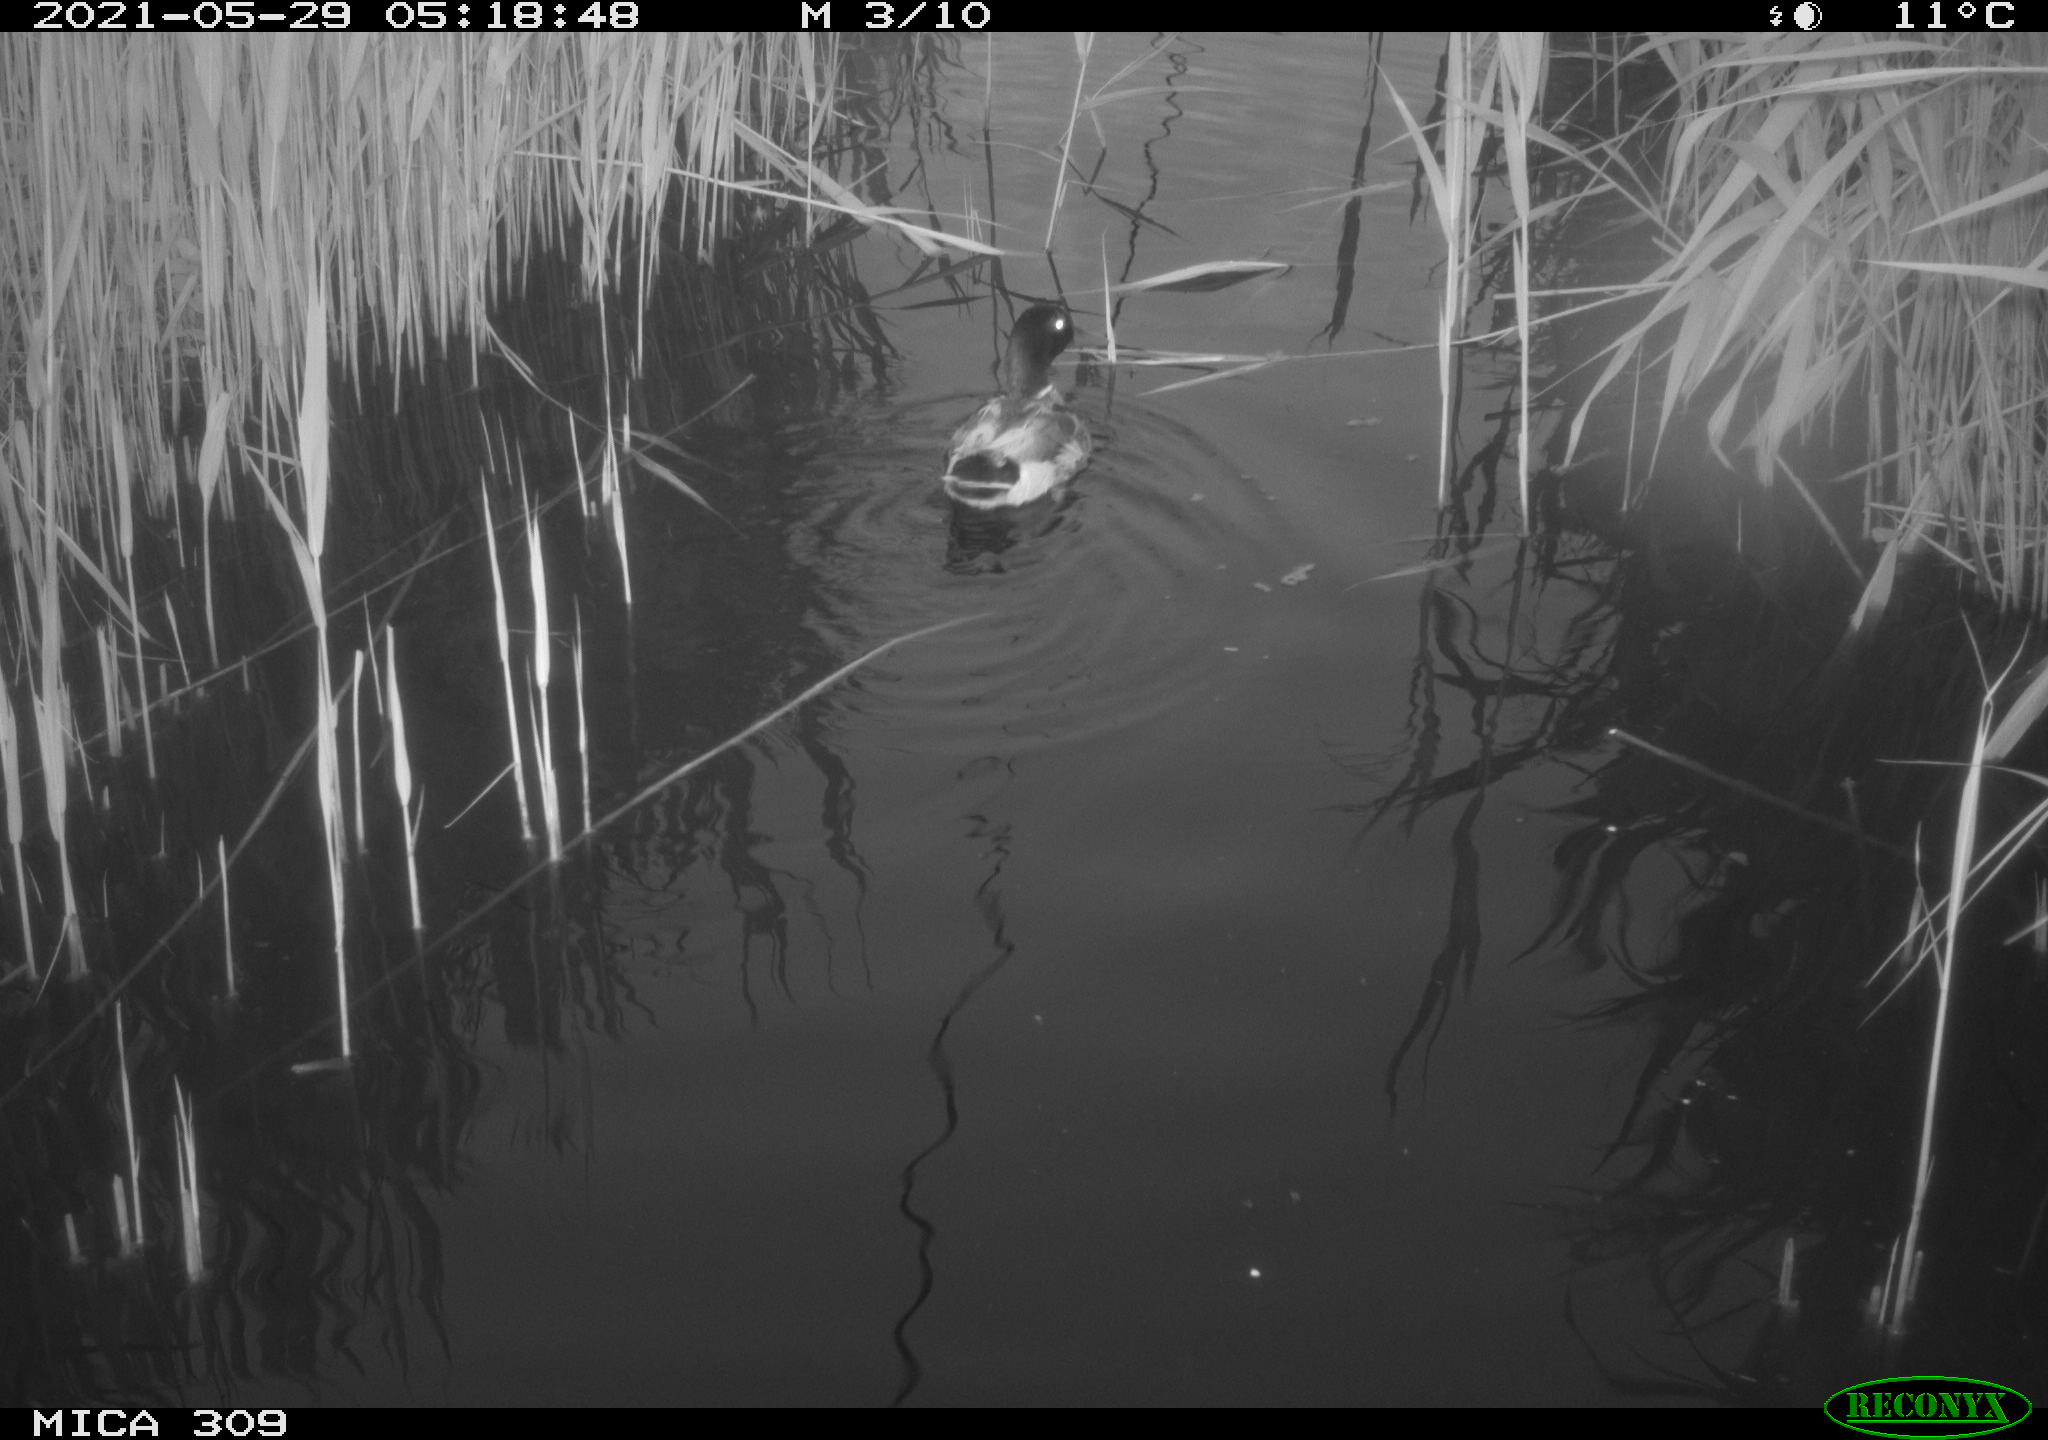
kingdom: Animalia
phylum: Chordata
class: Aves
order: Gruiformes
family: Rallidae
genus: Fulica
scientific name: Fulica atra
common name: Eurasian coot
